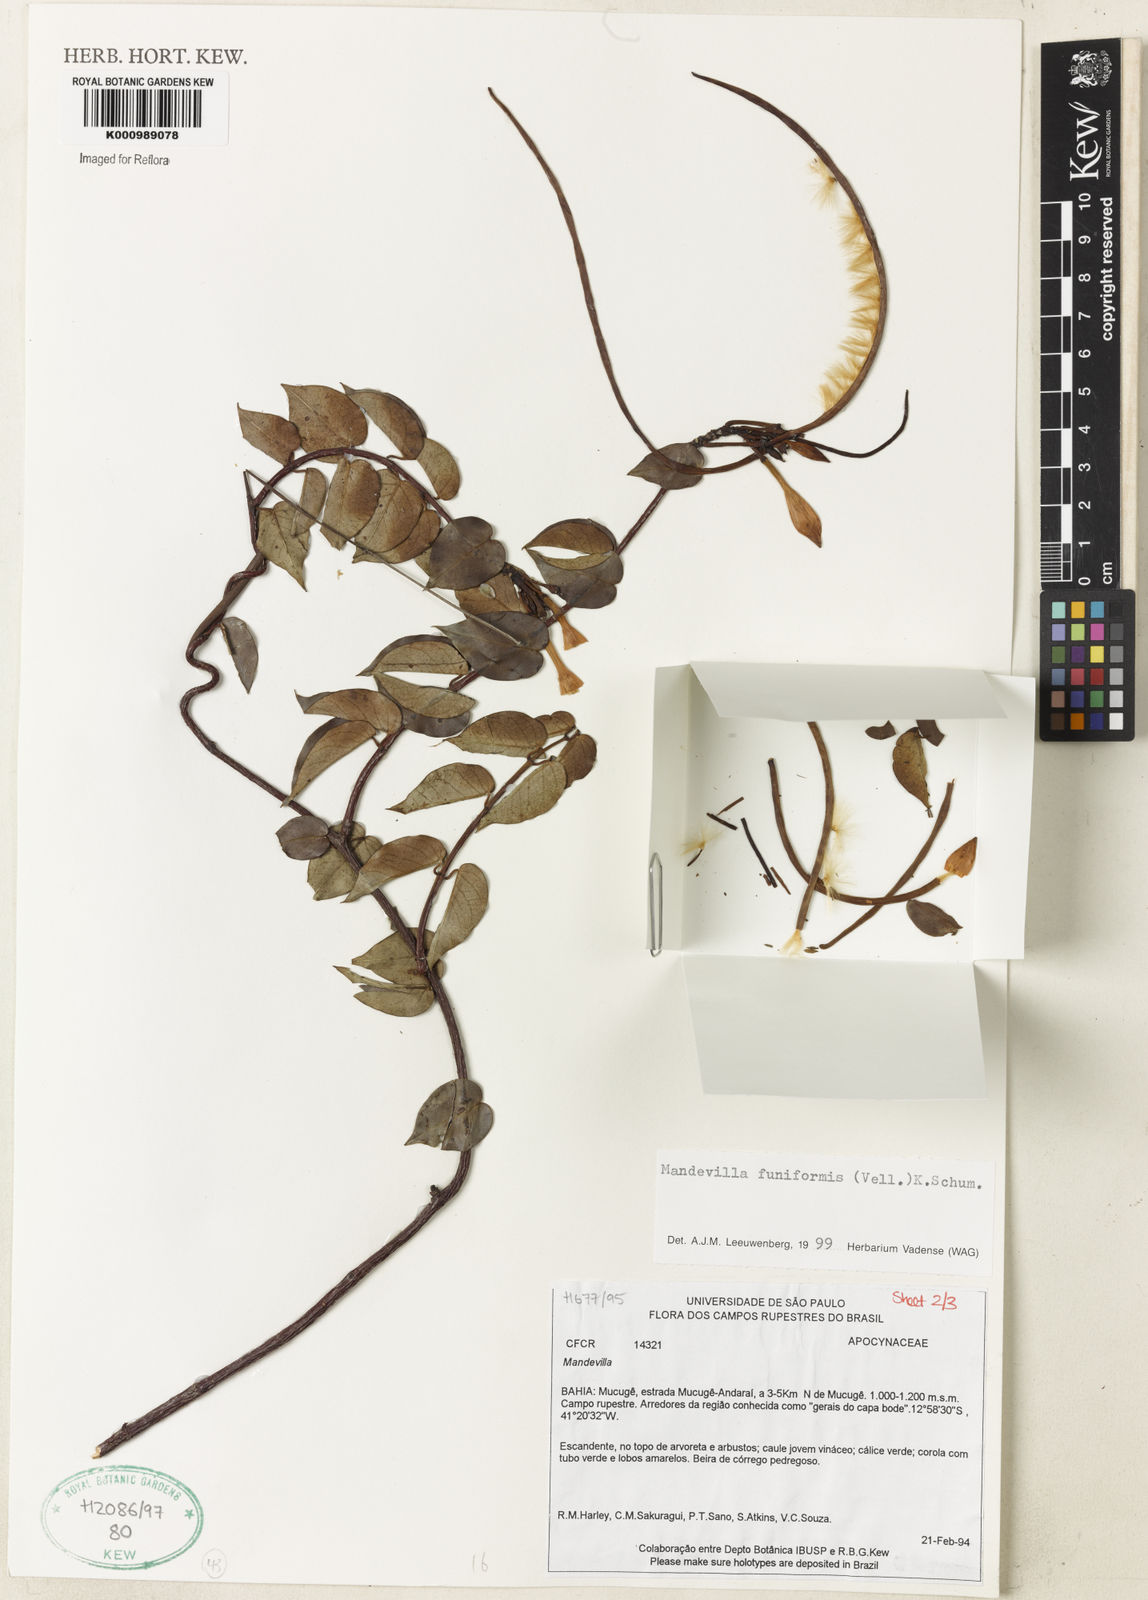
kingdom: Plantae
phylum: Tracheophyta
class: Magnoliopsida
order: Gentianales
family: Apocynaceae
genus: Mandevilla
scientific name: Mandevilla funiformis
